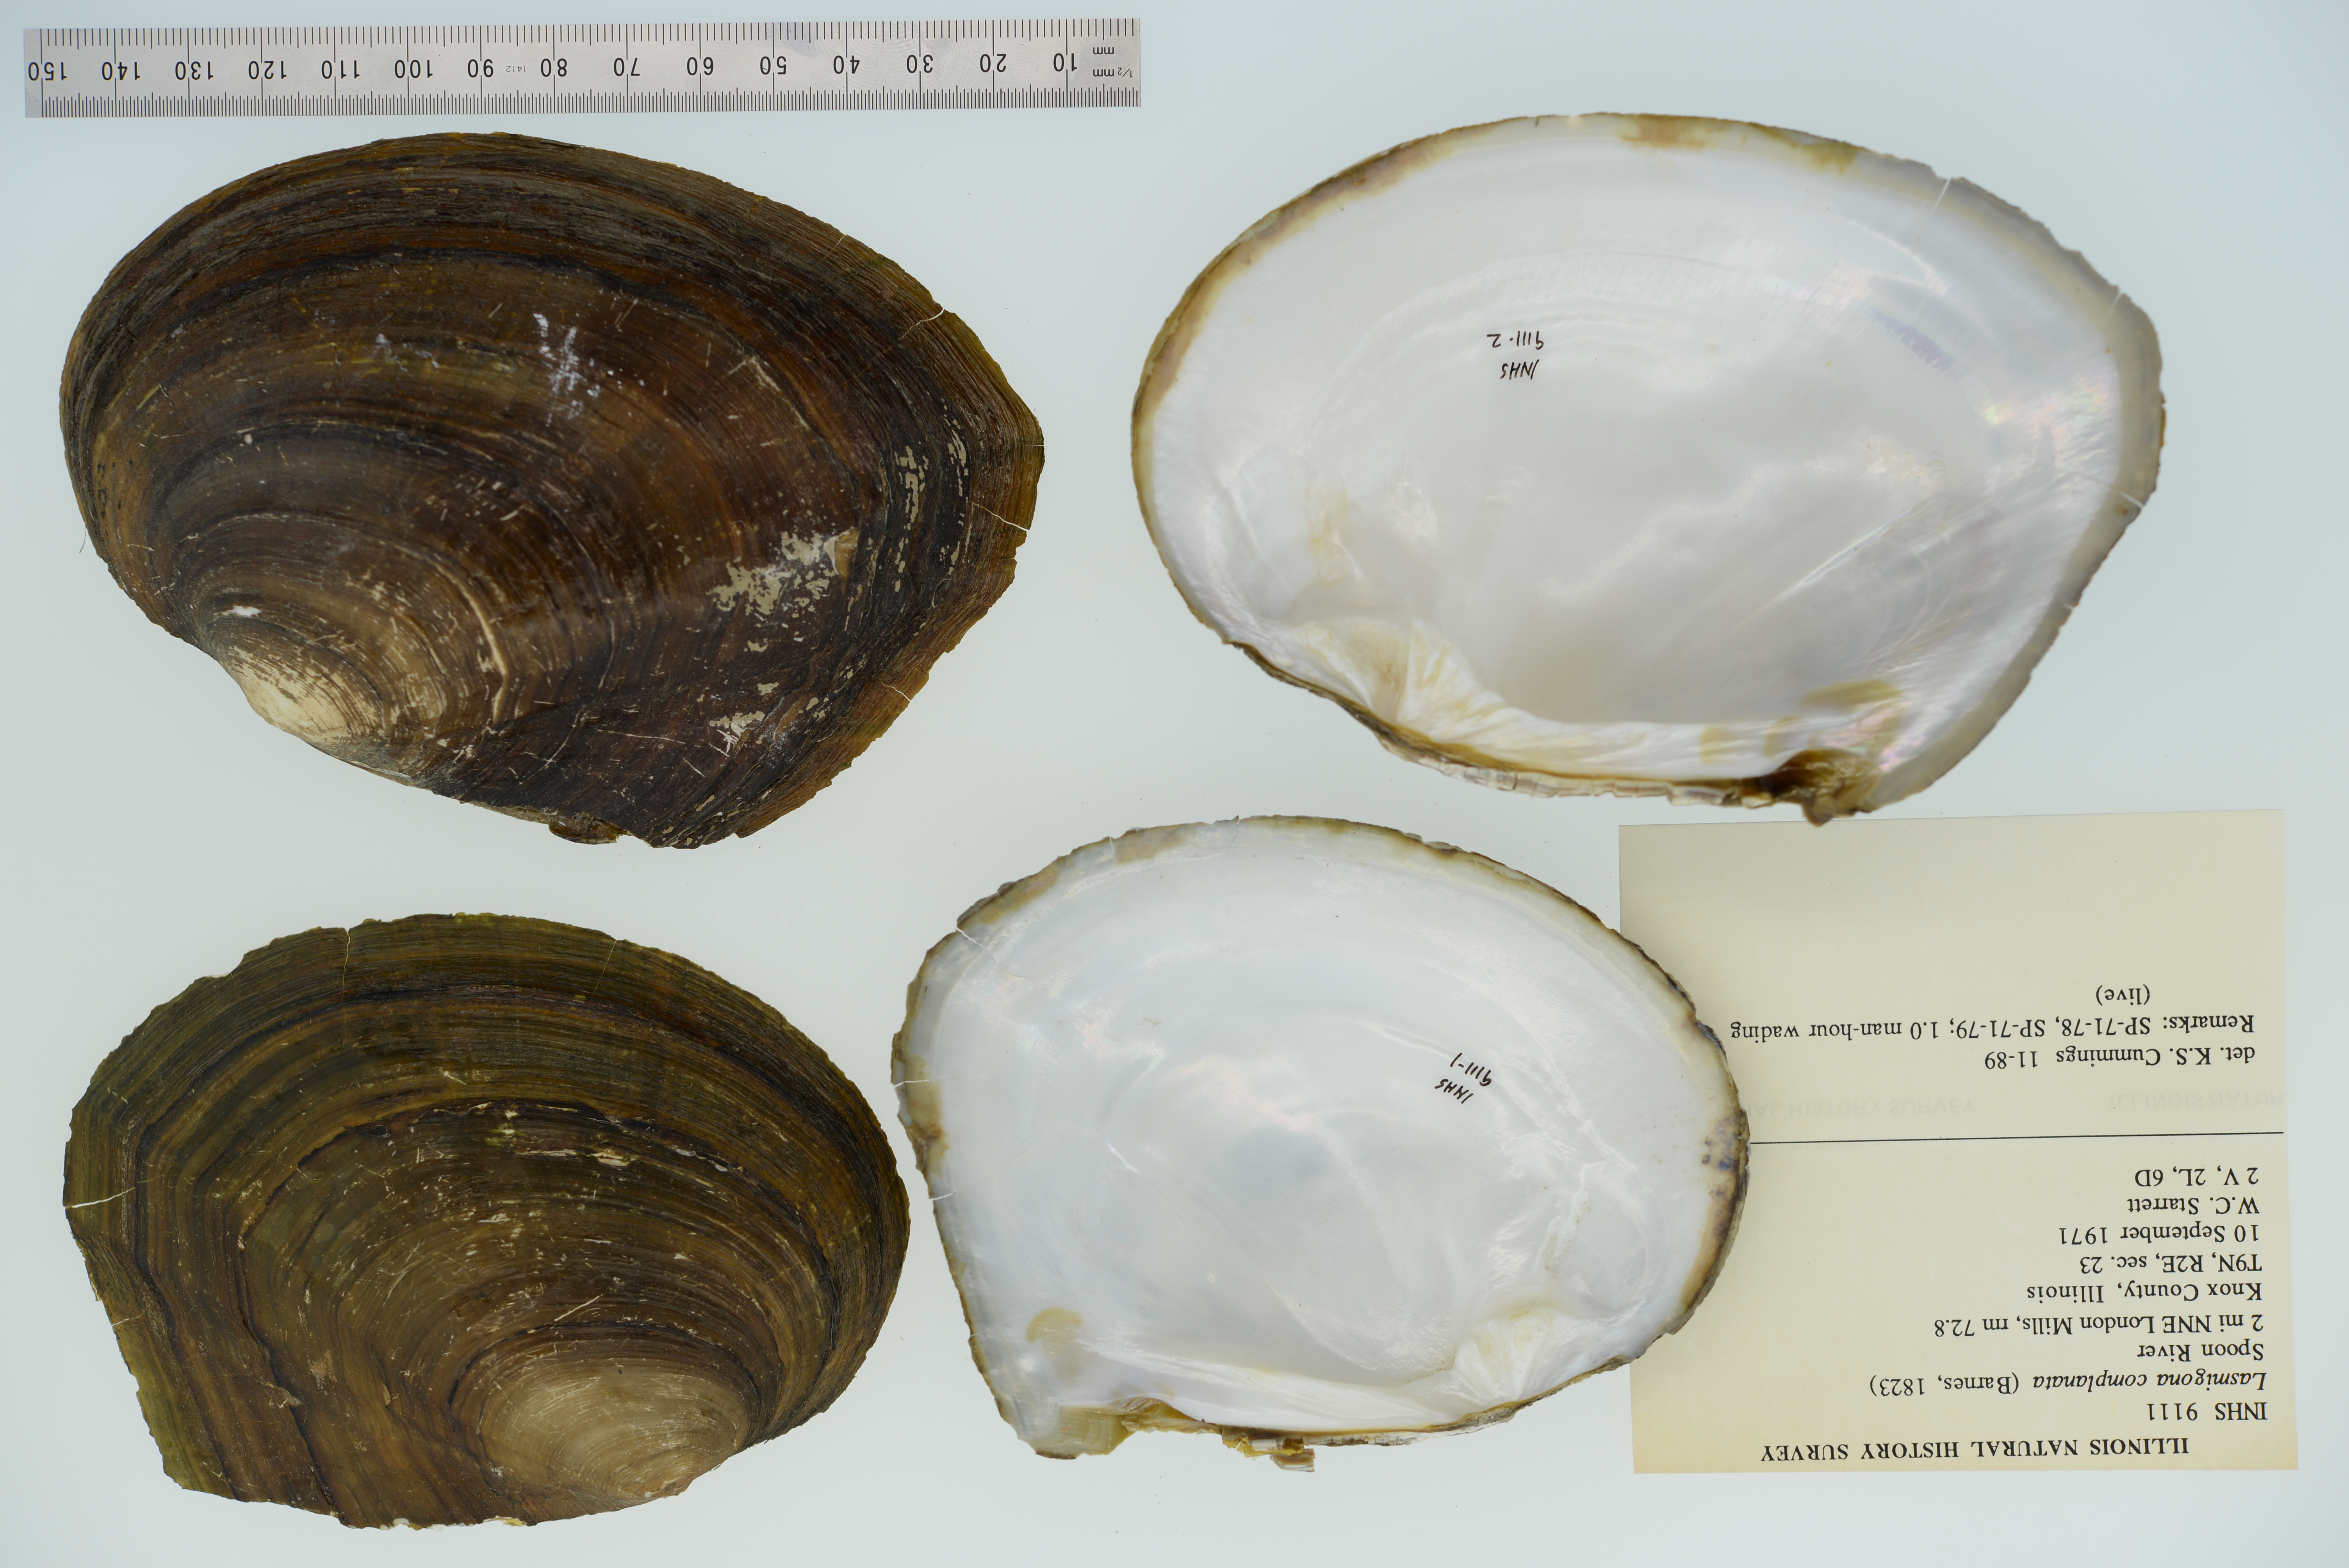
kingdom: Animalia
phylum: Mollusca
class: Bivalvia
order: Unionida
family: Unionidae
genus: Lasmigona
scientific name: Lasmigona complanata
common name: White heelsplitter
